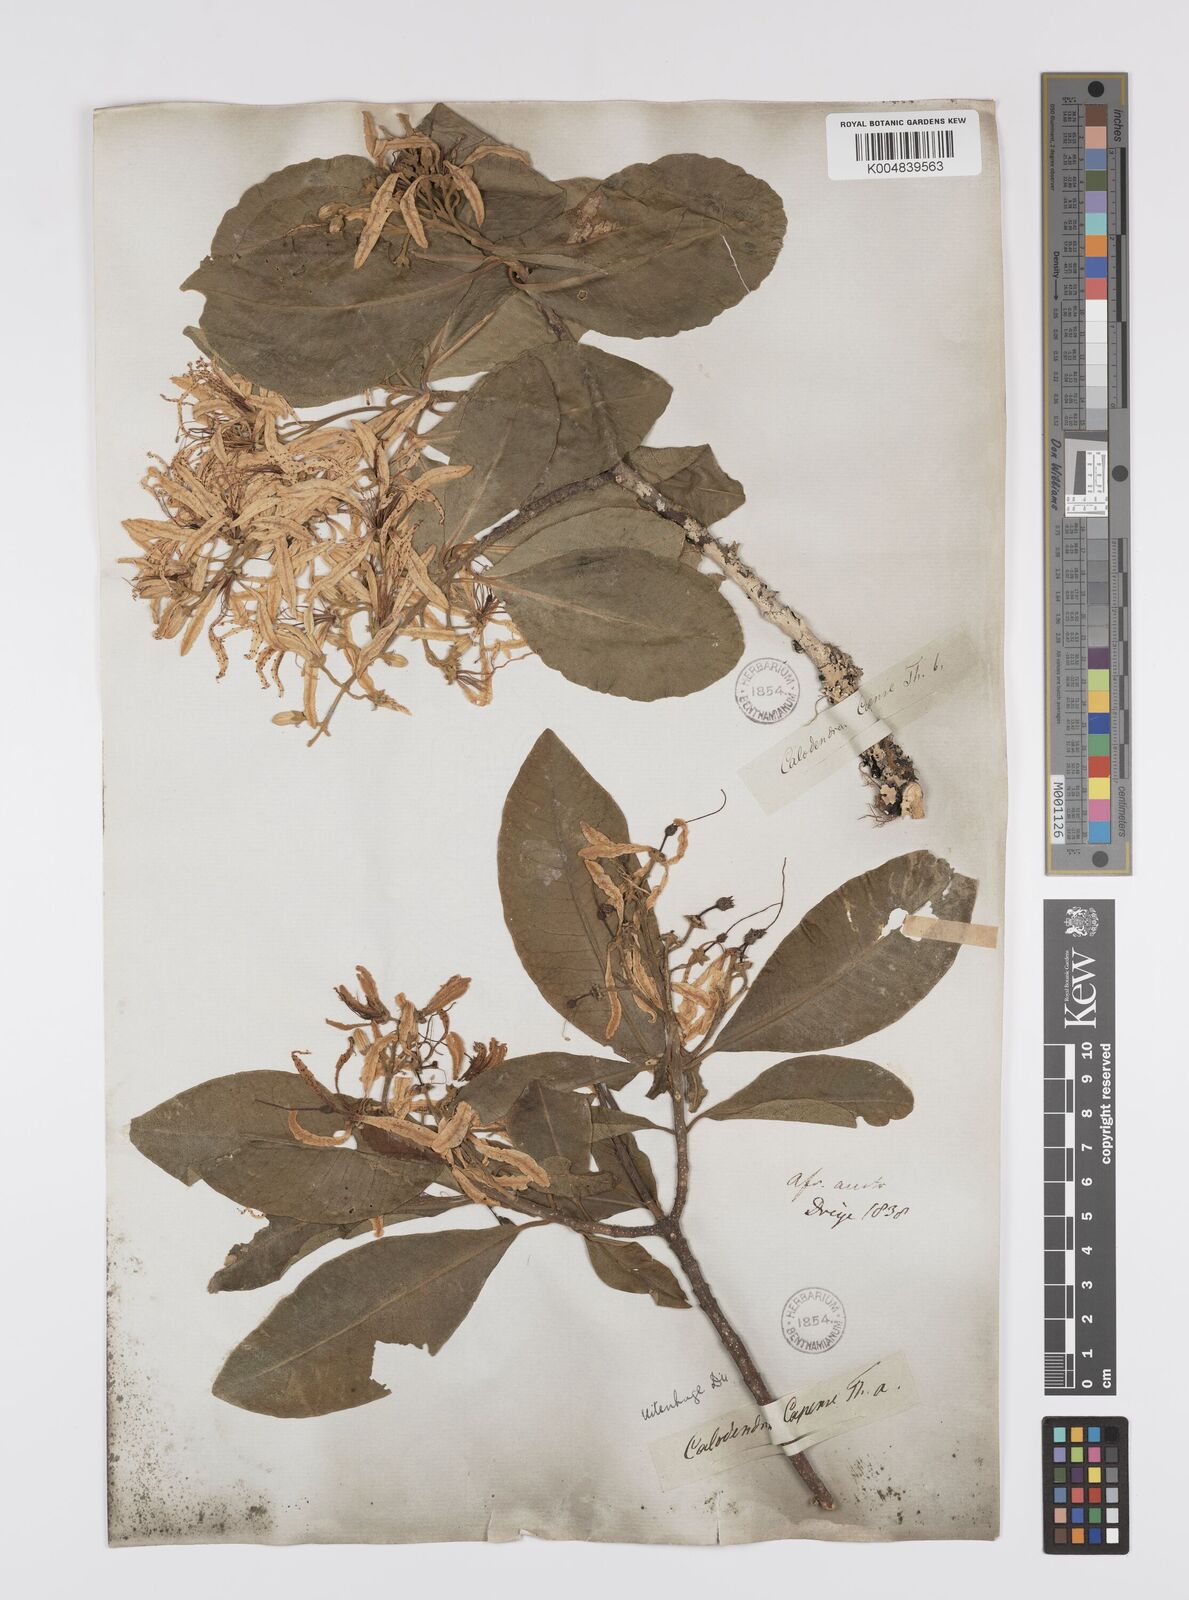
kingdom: Plantae
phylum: Tracheophyta
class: Magnoliopsida
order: Sapindales
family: Rutaceae
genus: Calodendrum
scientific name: Calodendrum capense
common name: Cape chestnut
